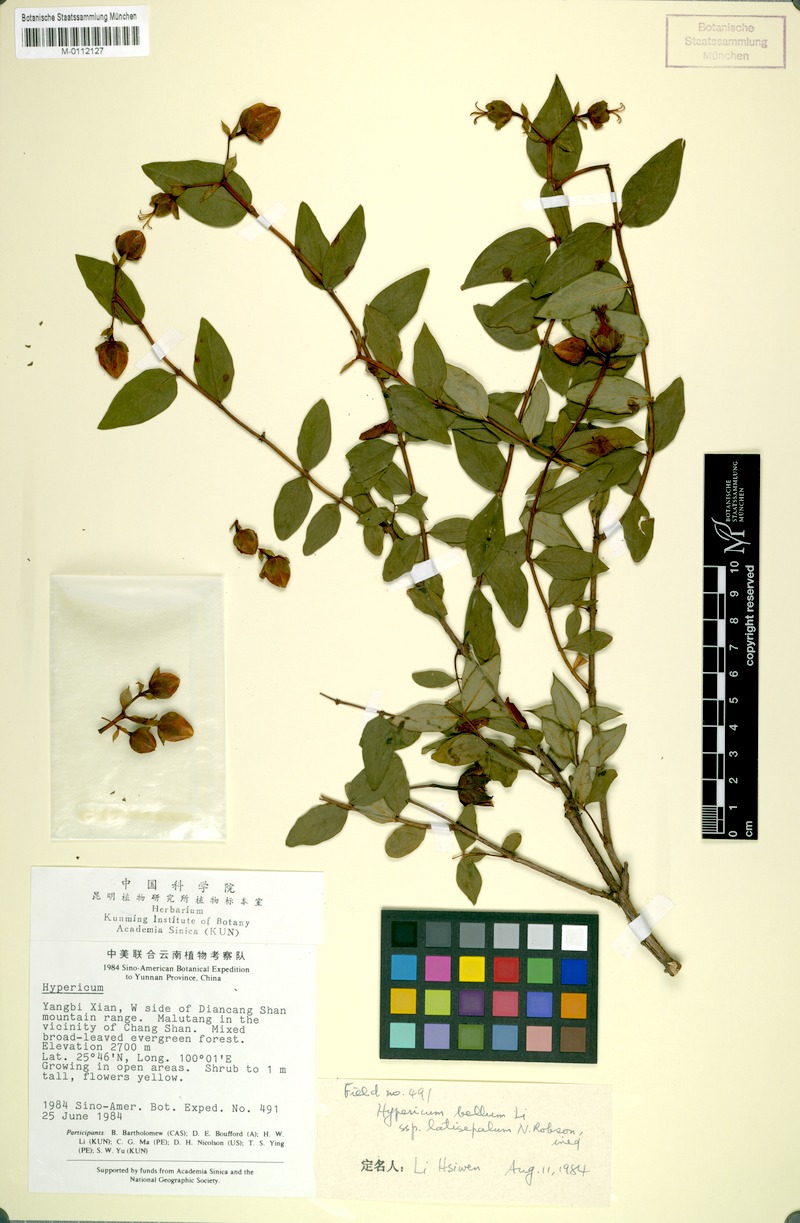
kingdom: Plantae
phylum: Tracheophyta
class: Magnoliopsida
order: Malpighiales
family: Hypericaceae
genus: Hypericum
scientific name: Hypericum latisepalum
